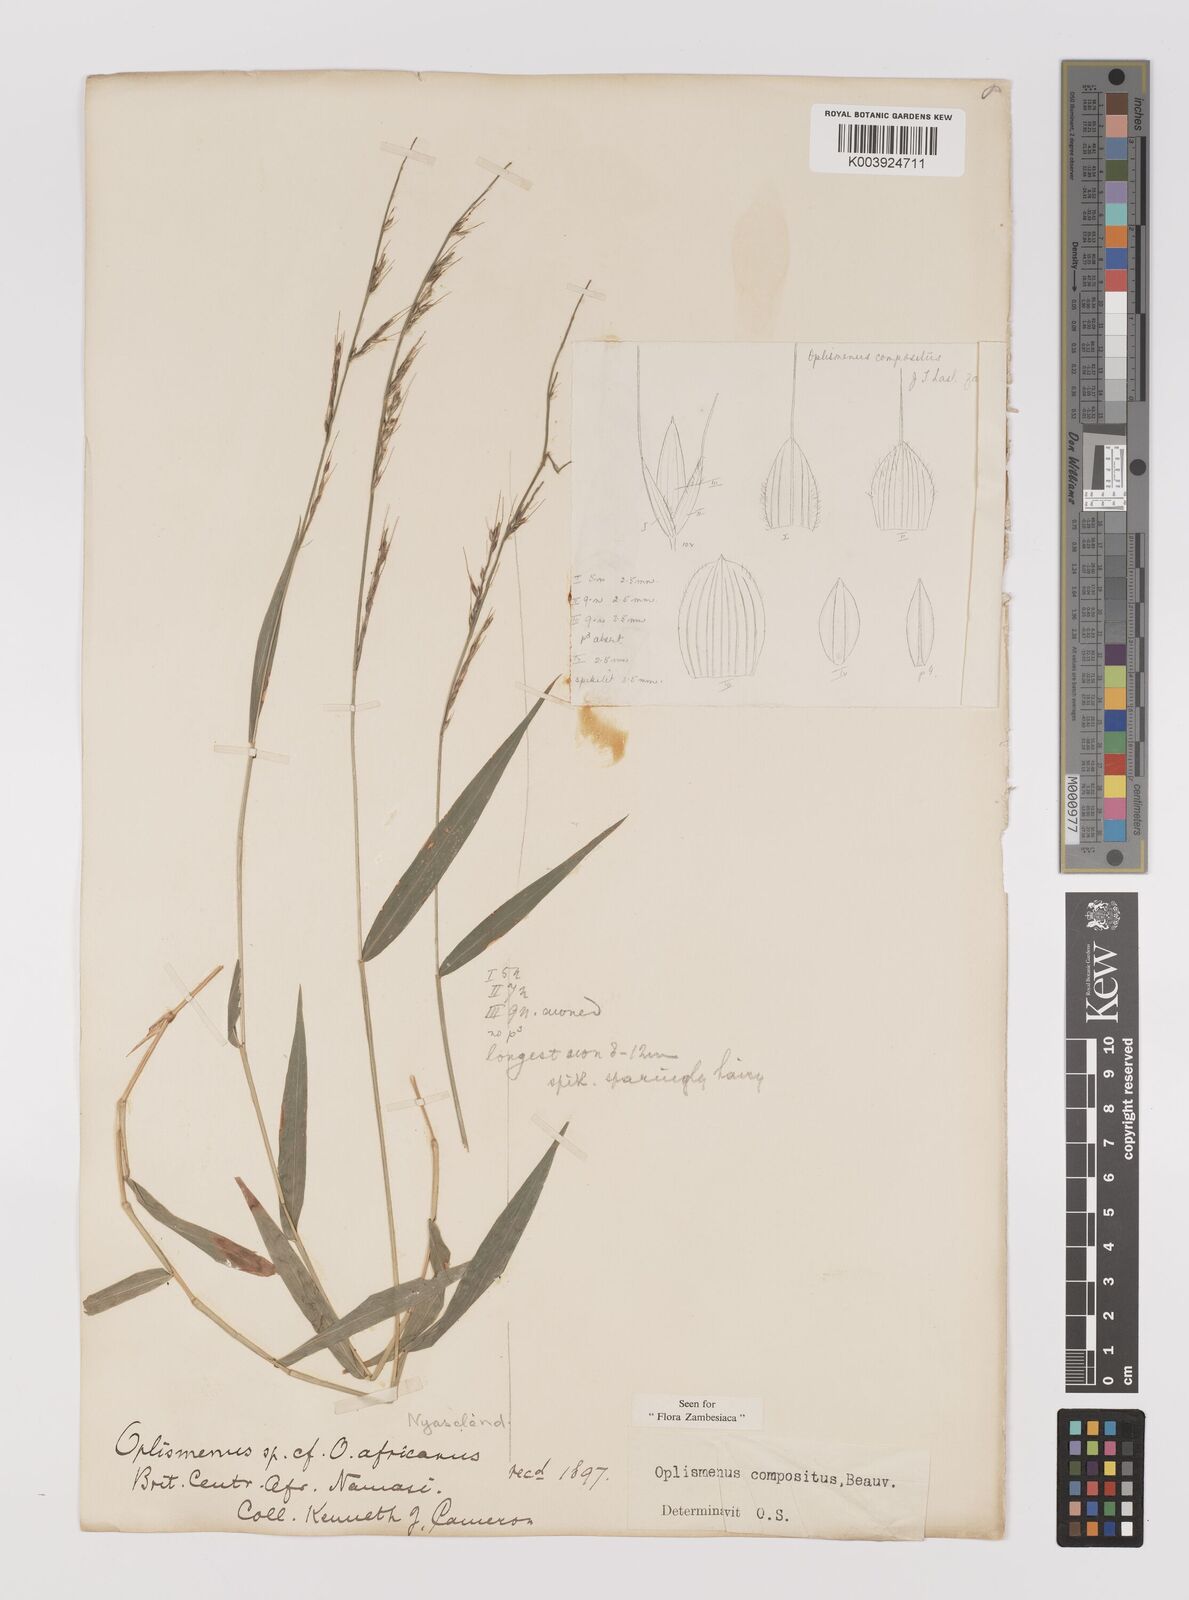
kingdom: Plantae
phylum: Tracheophyta
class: Liliopsida
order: Poales
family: Poaceae
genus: Oplismenus
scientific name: Oplismenus compositus
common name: Running mountain grass
